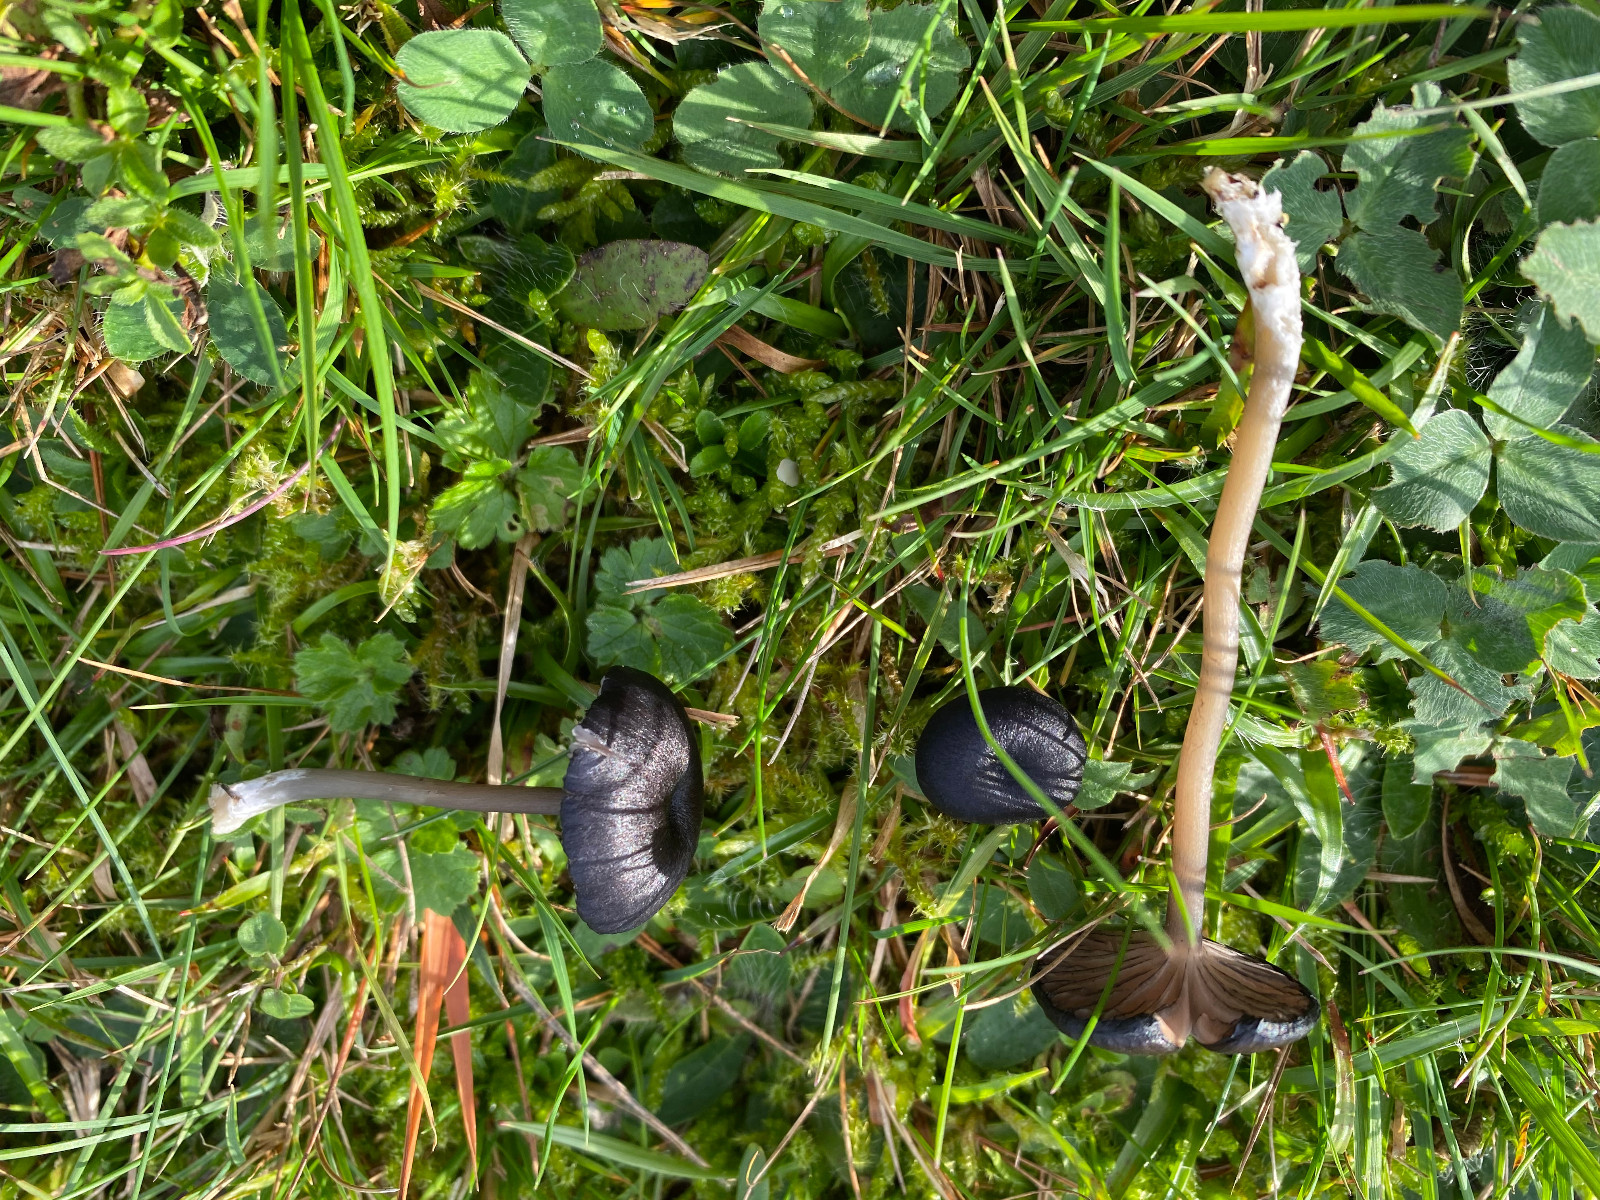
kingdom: Fungi
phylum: Basidiomycota
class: Agaricomycetes
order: Agaricales
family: Entolomataceae
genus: Entoloma
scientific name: Entoloma
